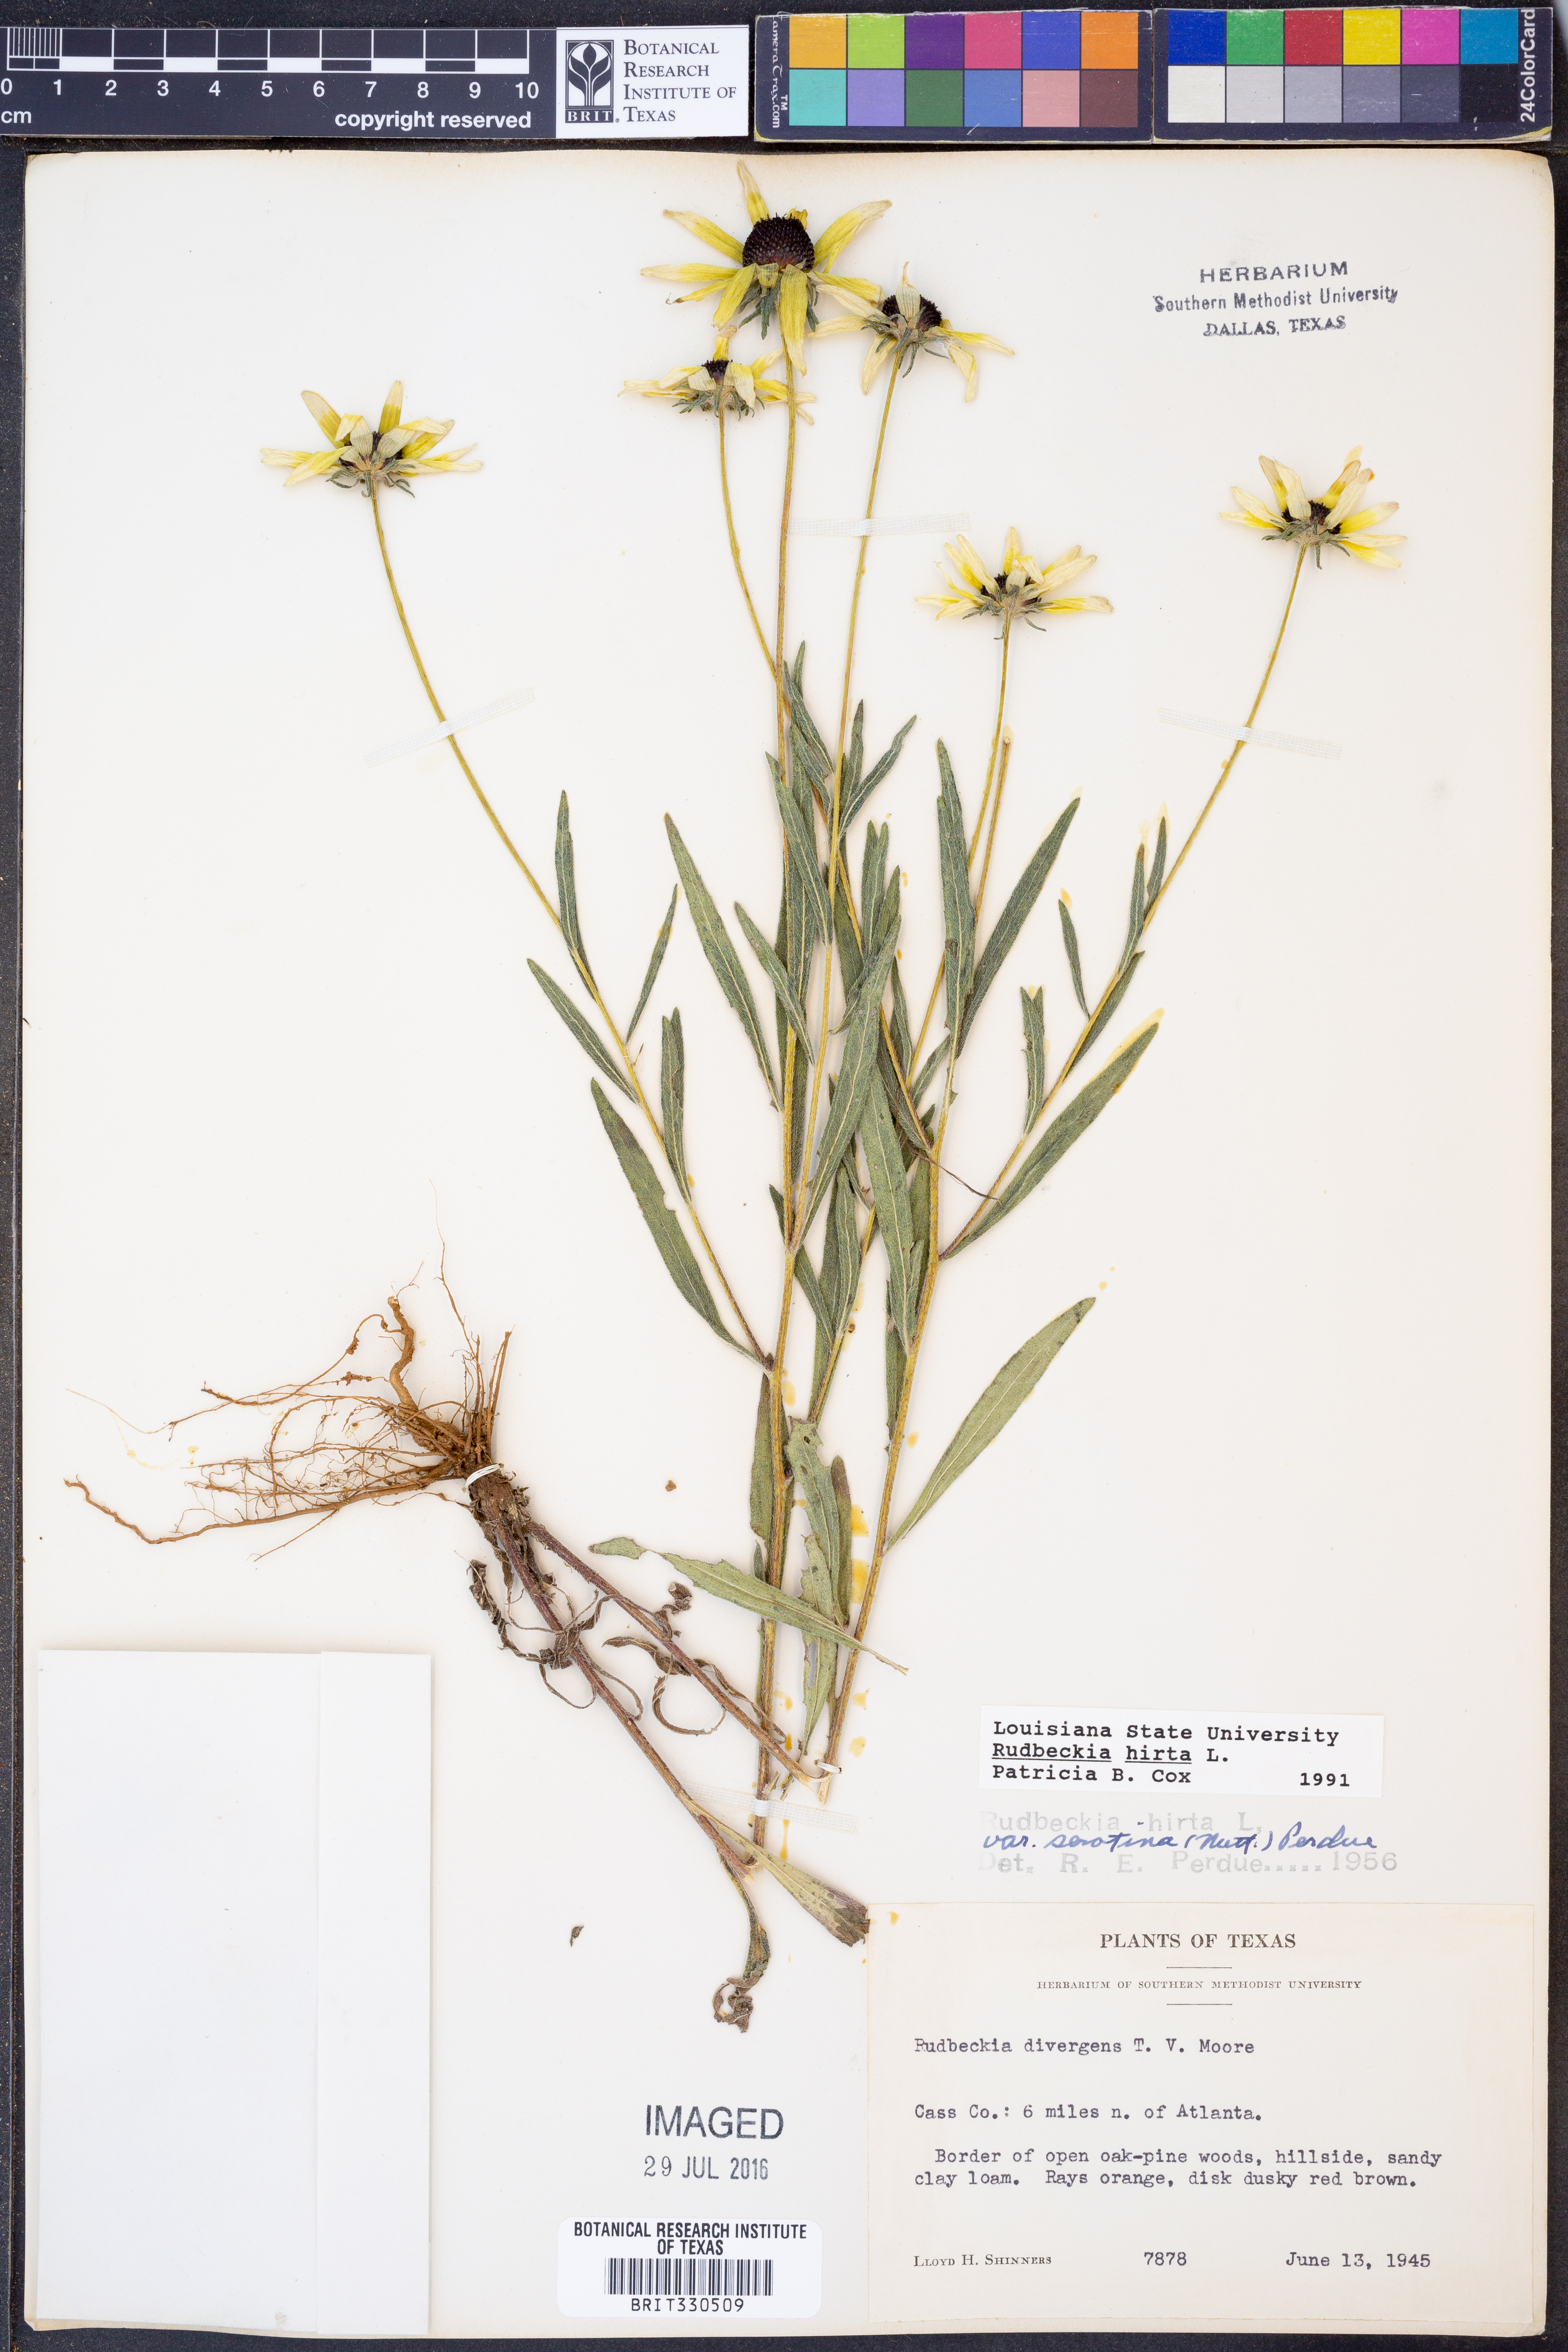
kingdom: Plantae
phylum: Tracheophyta
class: Magnoliopsida
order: Asterales
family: Asteraceae
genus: Rudbeckia
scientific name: Rudbeckia hirta
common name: Black-eyed-susan
